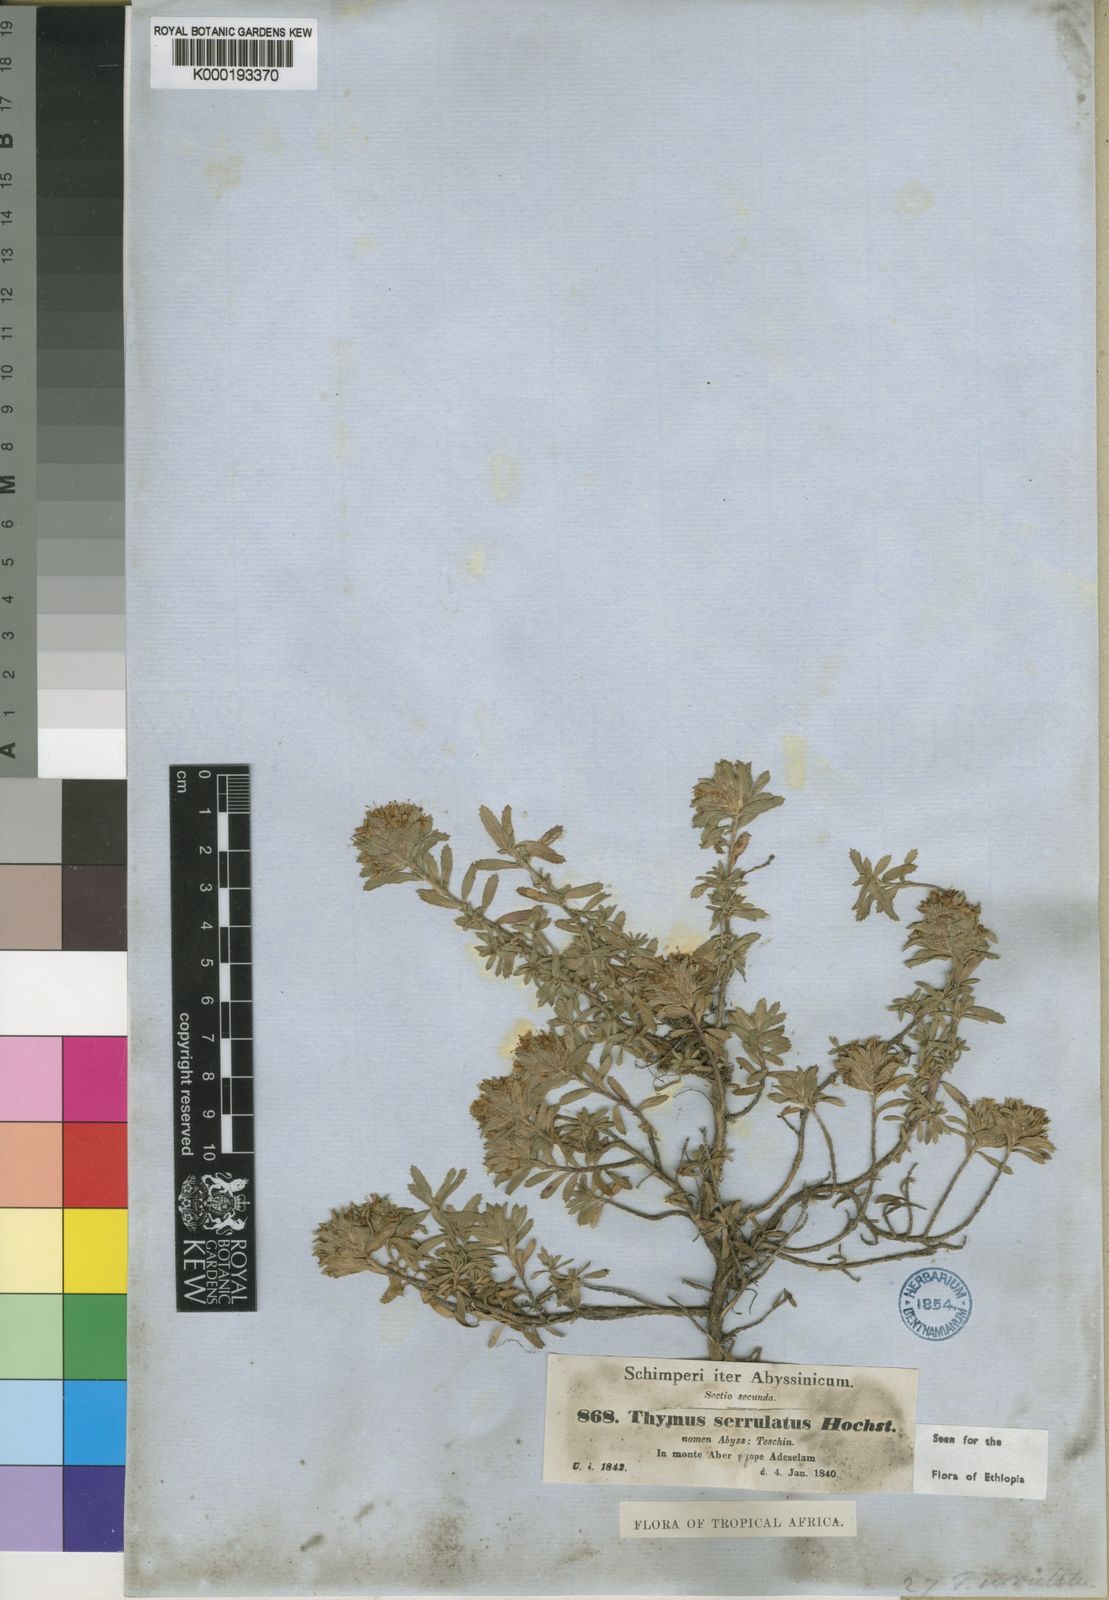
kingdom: Plantae
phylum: Tracheophyta
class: Magnoliopsida
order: Lamiales
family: Lamiaceae
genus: Thymus
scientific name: Thymus serrulatus
